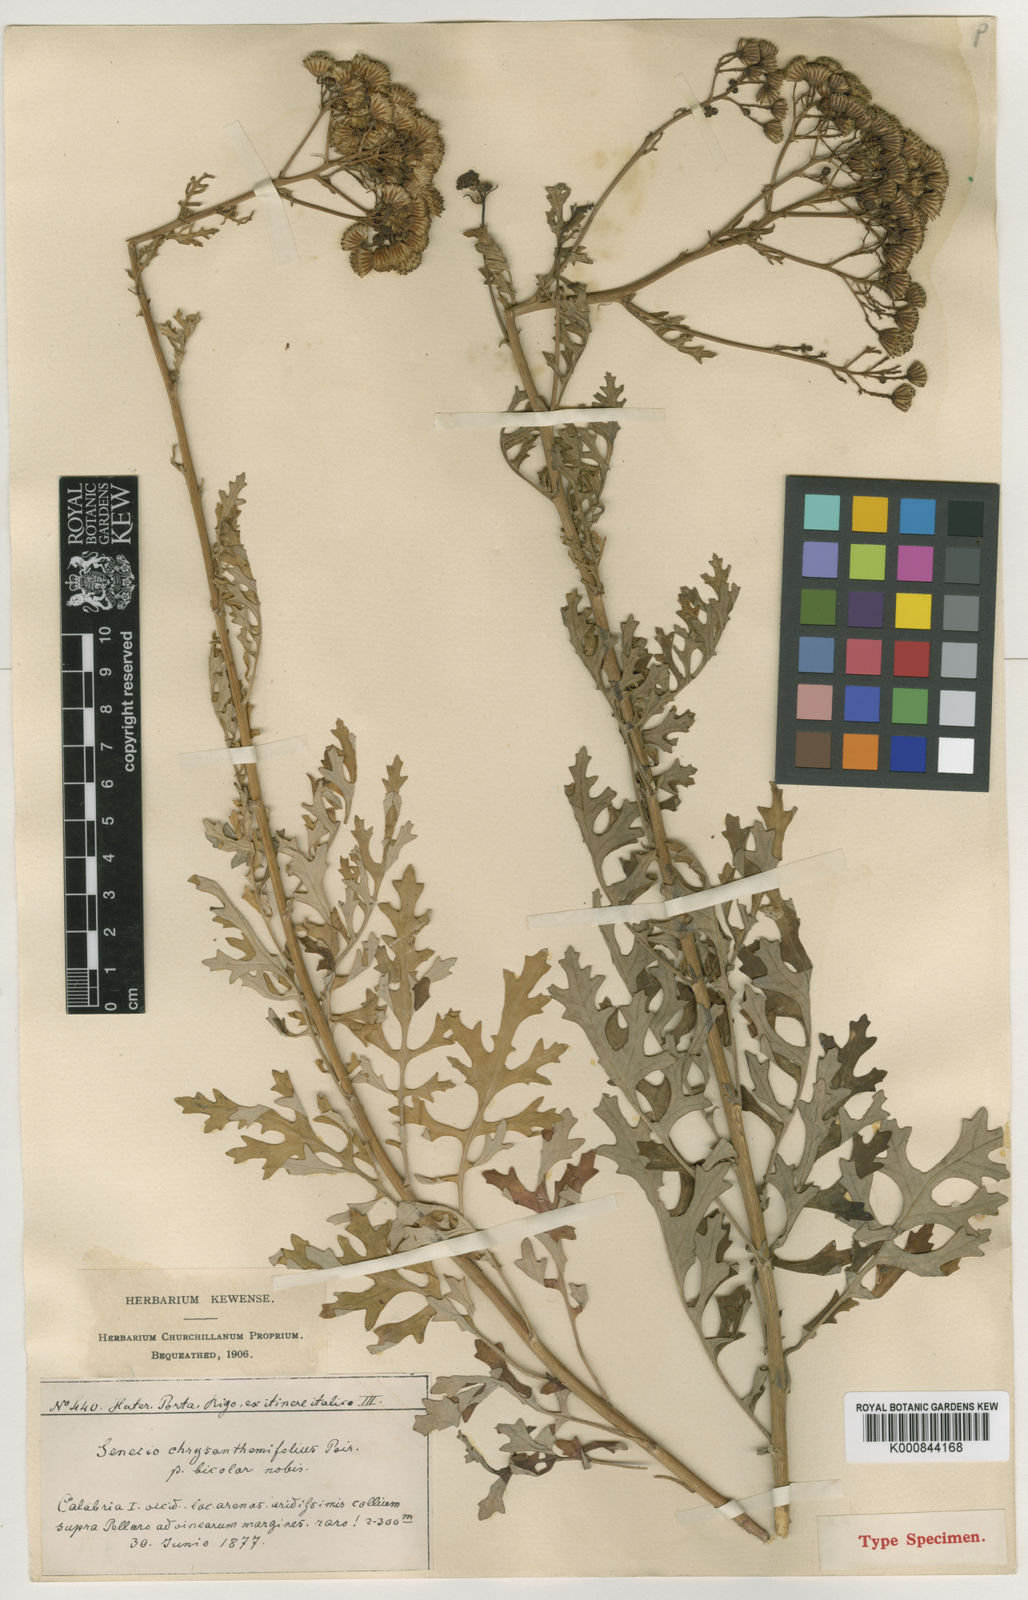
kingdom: Plantae
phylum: Tracheophyta
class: Magnoliopsida
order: Asterales
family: Asteraceae
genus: Jacobaea
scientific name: Jacobaea maritima
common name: Silver ragwort
